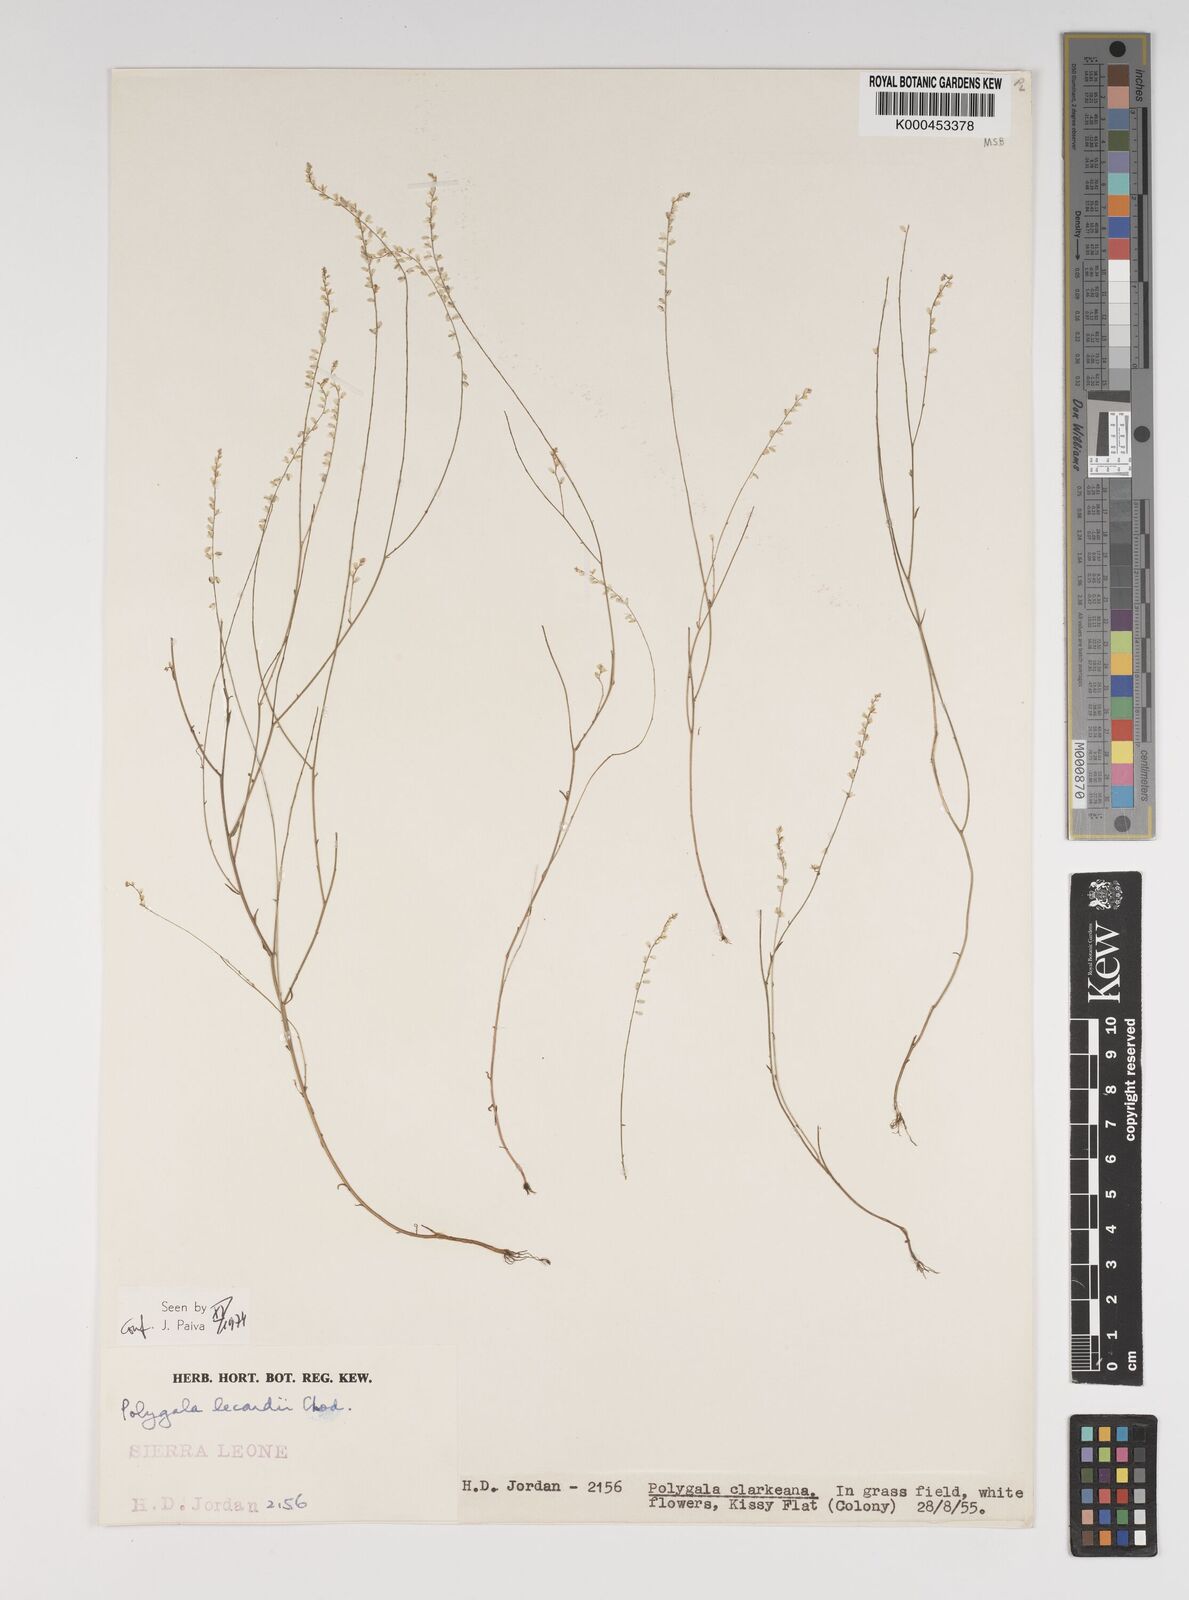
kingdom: Plantae
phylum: Tracheophyta
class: Magnoliopsida
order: Fabales
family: Polygalaceae
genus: Polygala
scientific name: Polygala lecardii
